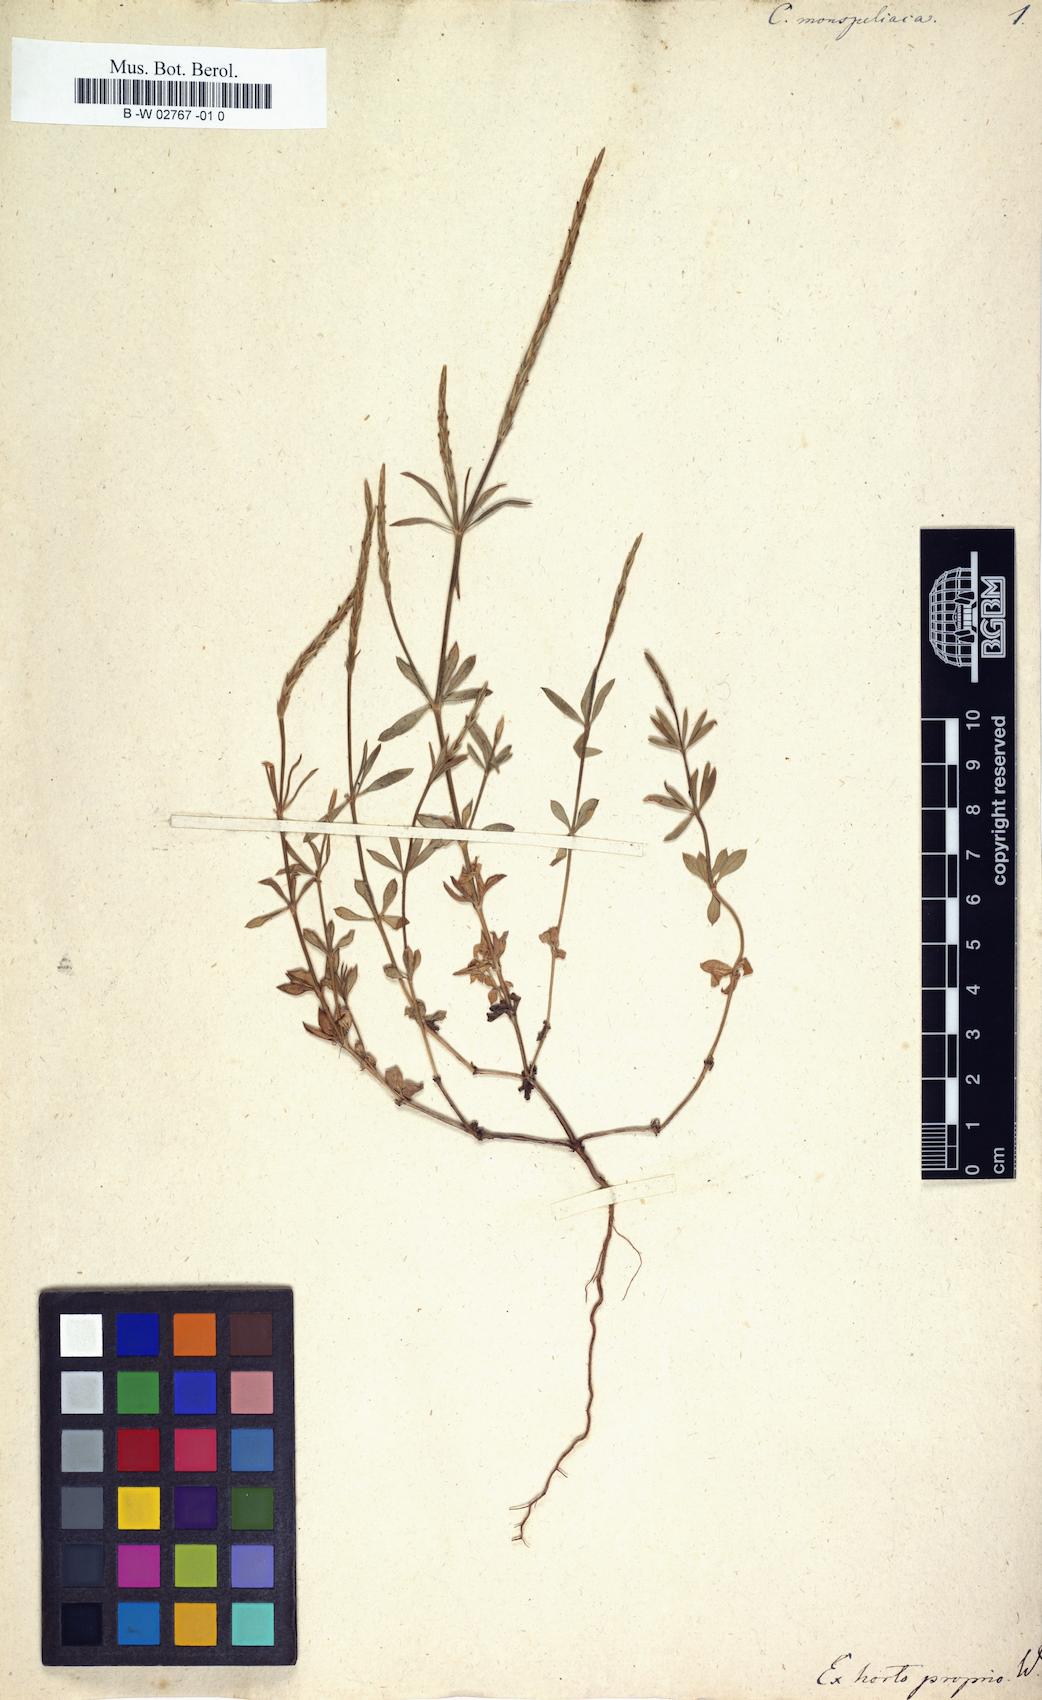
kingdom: Plantae
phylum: Tracheophyta
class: Magnoliopsida
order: Gentianales
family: Rubiaceae
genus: Crucianella
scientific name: Crucianella latifolia
